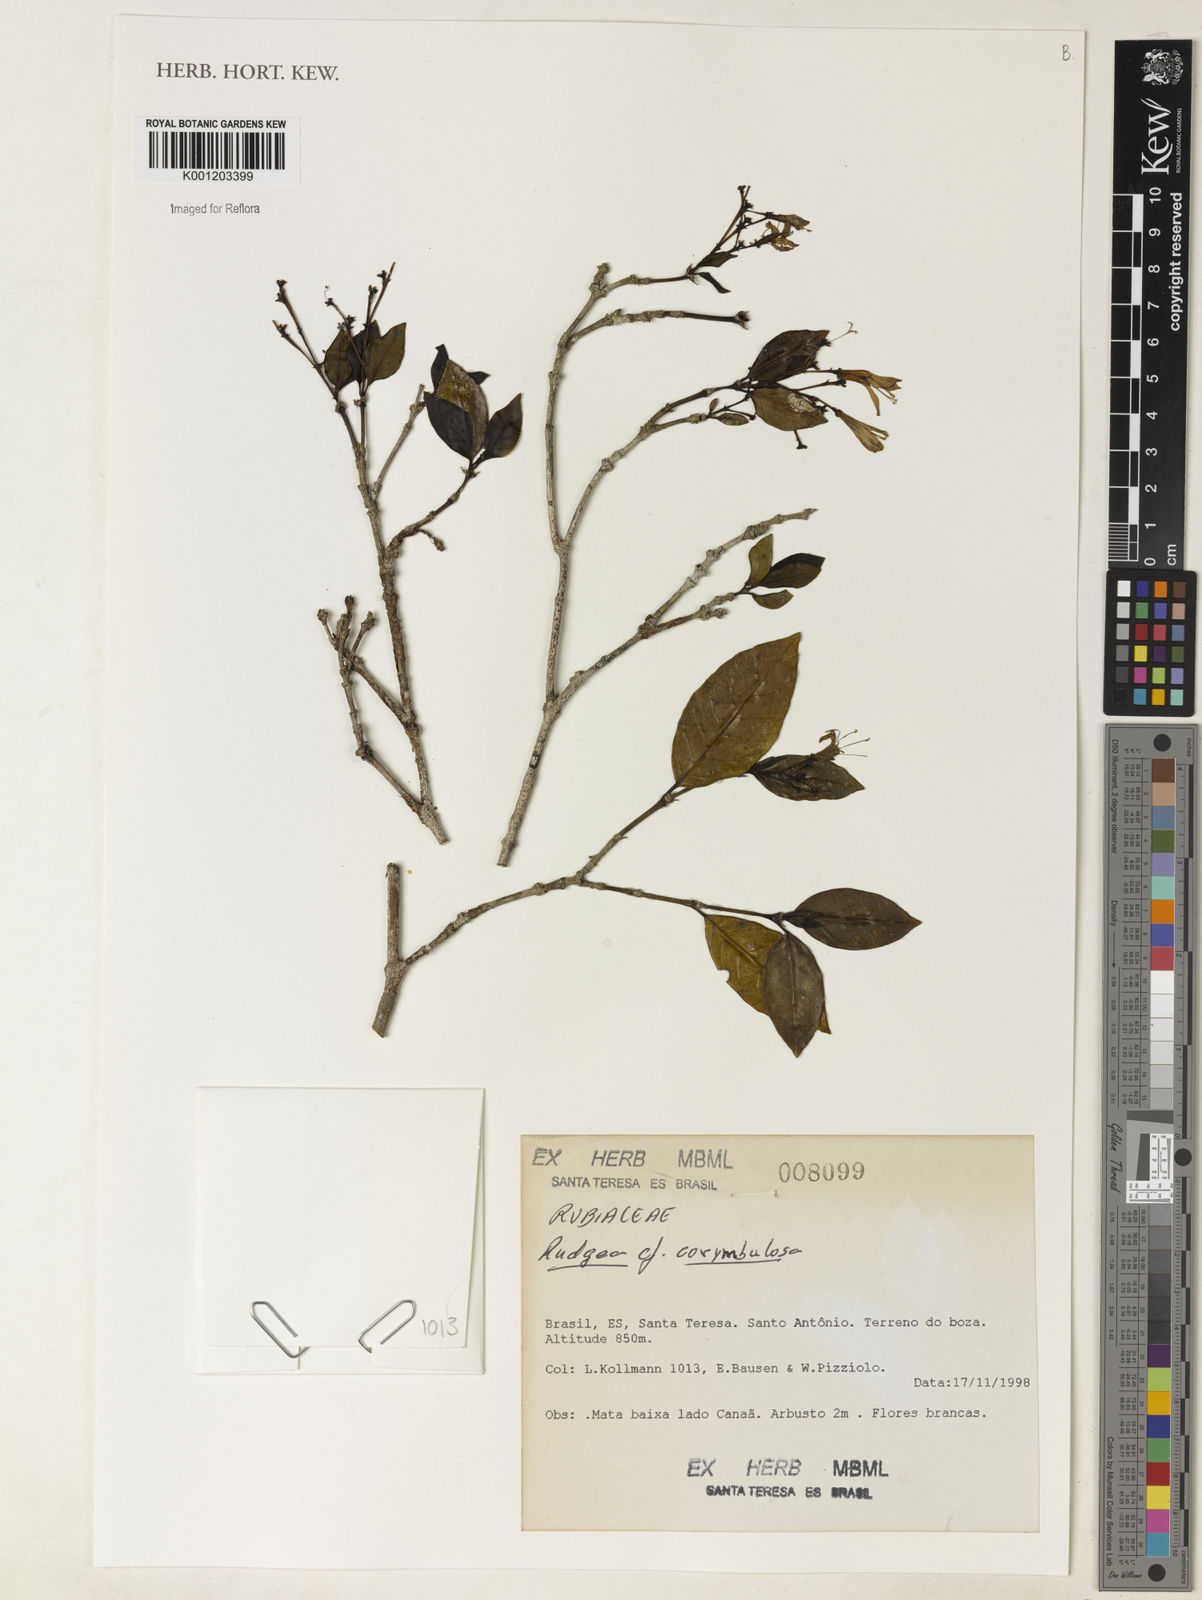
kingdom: Plantae
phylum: Tracheophyta
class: Magnoliopsida
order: Gentianales
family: Rubiaceae
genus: Rudgea
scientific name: Rudgea corymbulosa
